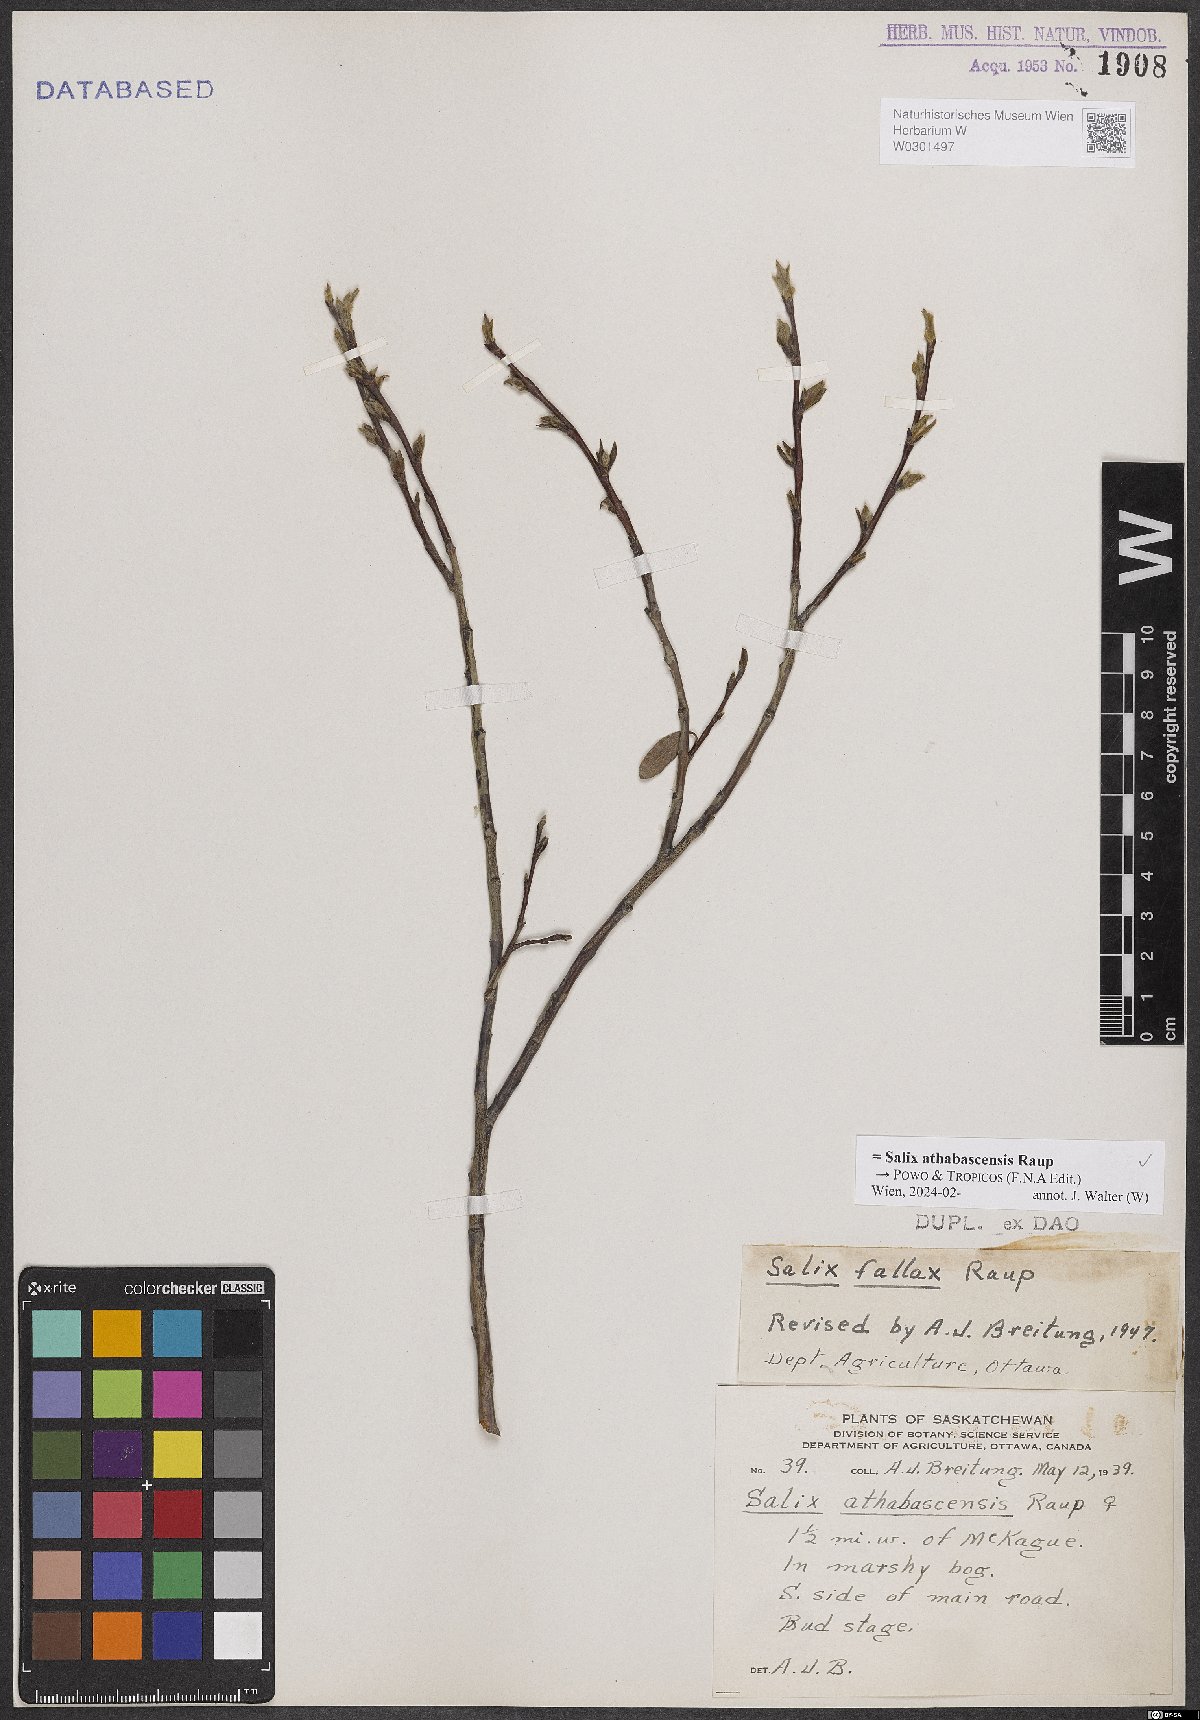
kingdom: Plantae
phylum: Tracheophyta
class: Magnoliopsida
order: Malpighiales
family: Salicaceae
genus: Salix
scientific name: Salix athabascensis
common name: Athabasca willow
